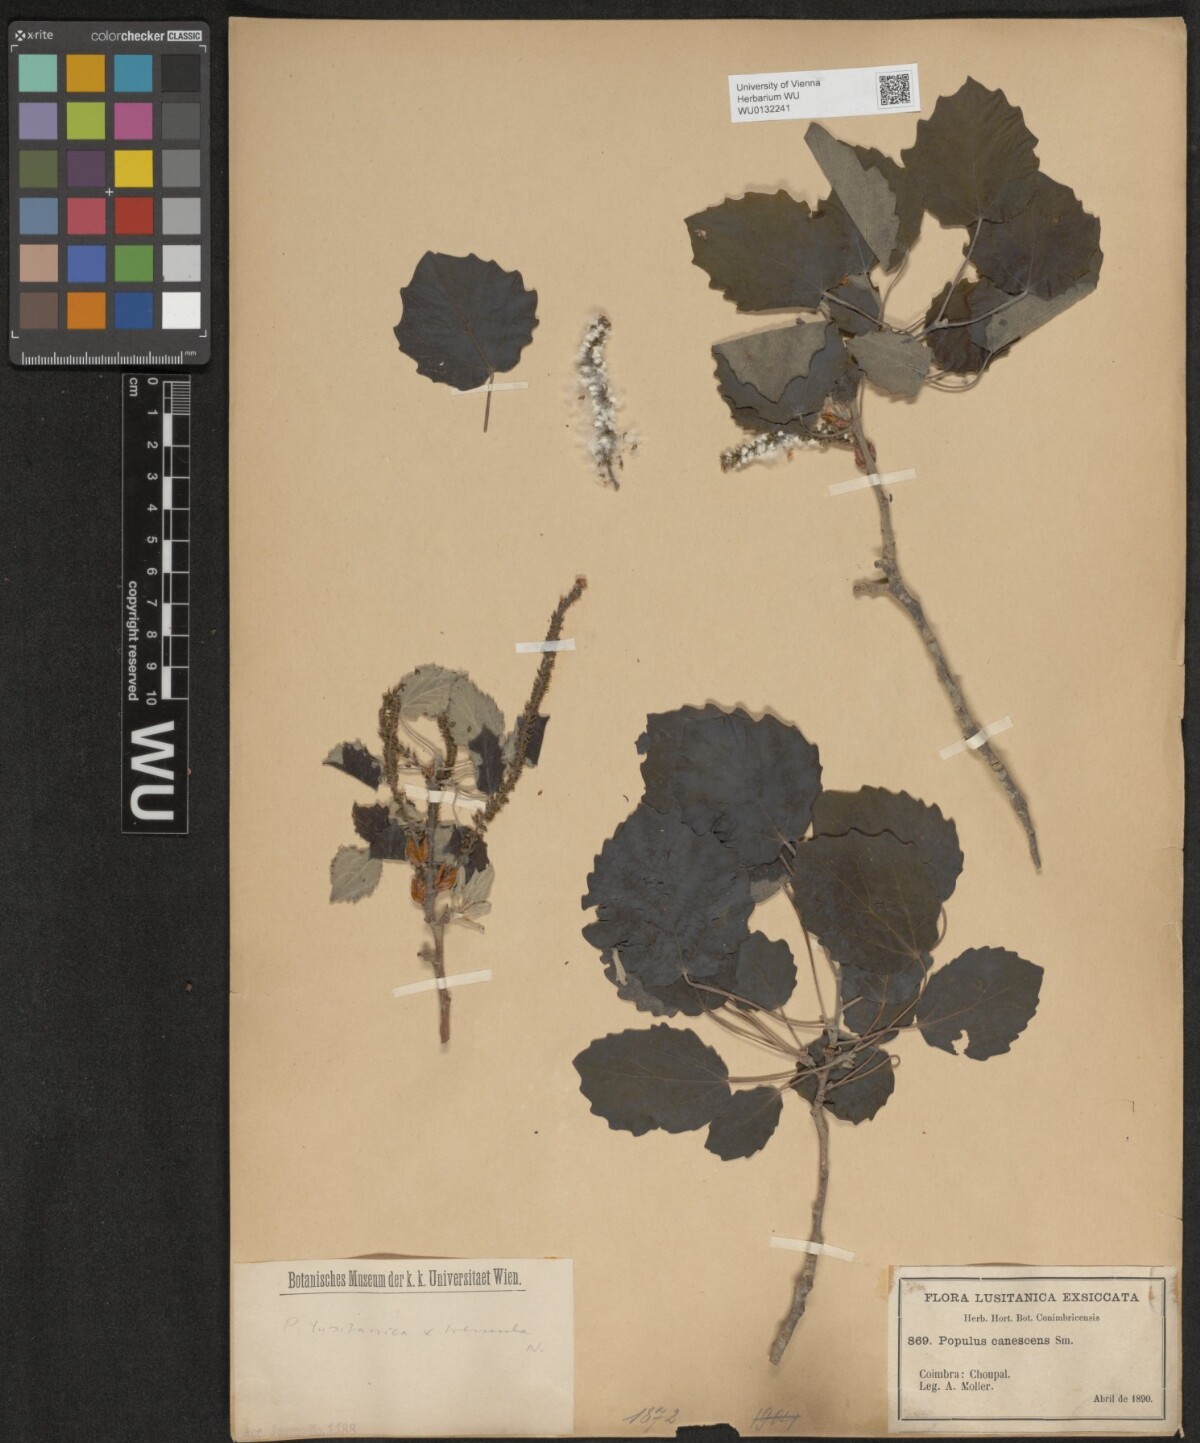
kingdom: Plantae
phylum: Tracheophyta
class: Magnoliopsida
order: Malpighiales
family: Salicaceae
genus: Populus
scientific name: Populus canescens
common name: Gray poplar
